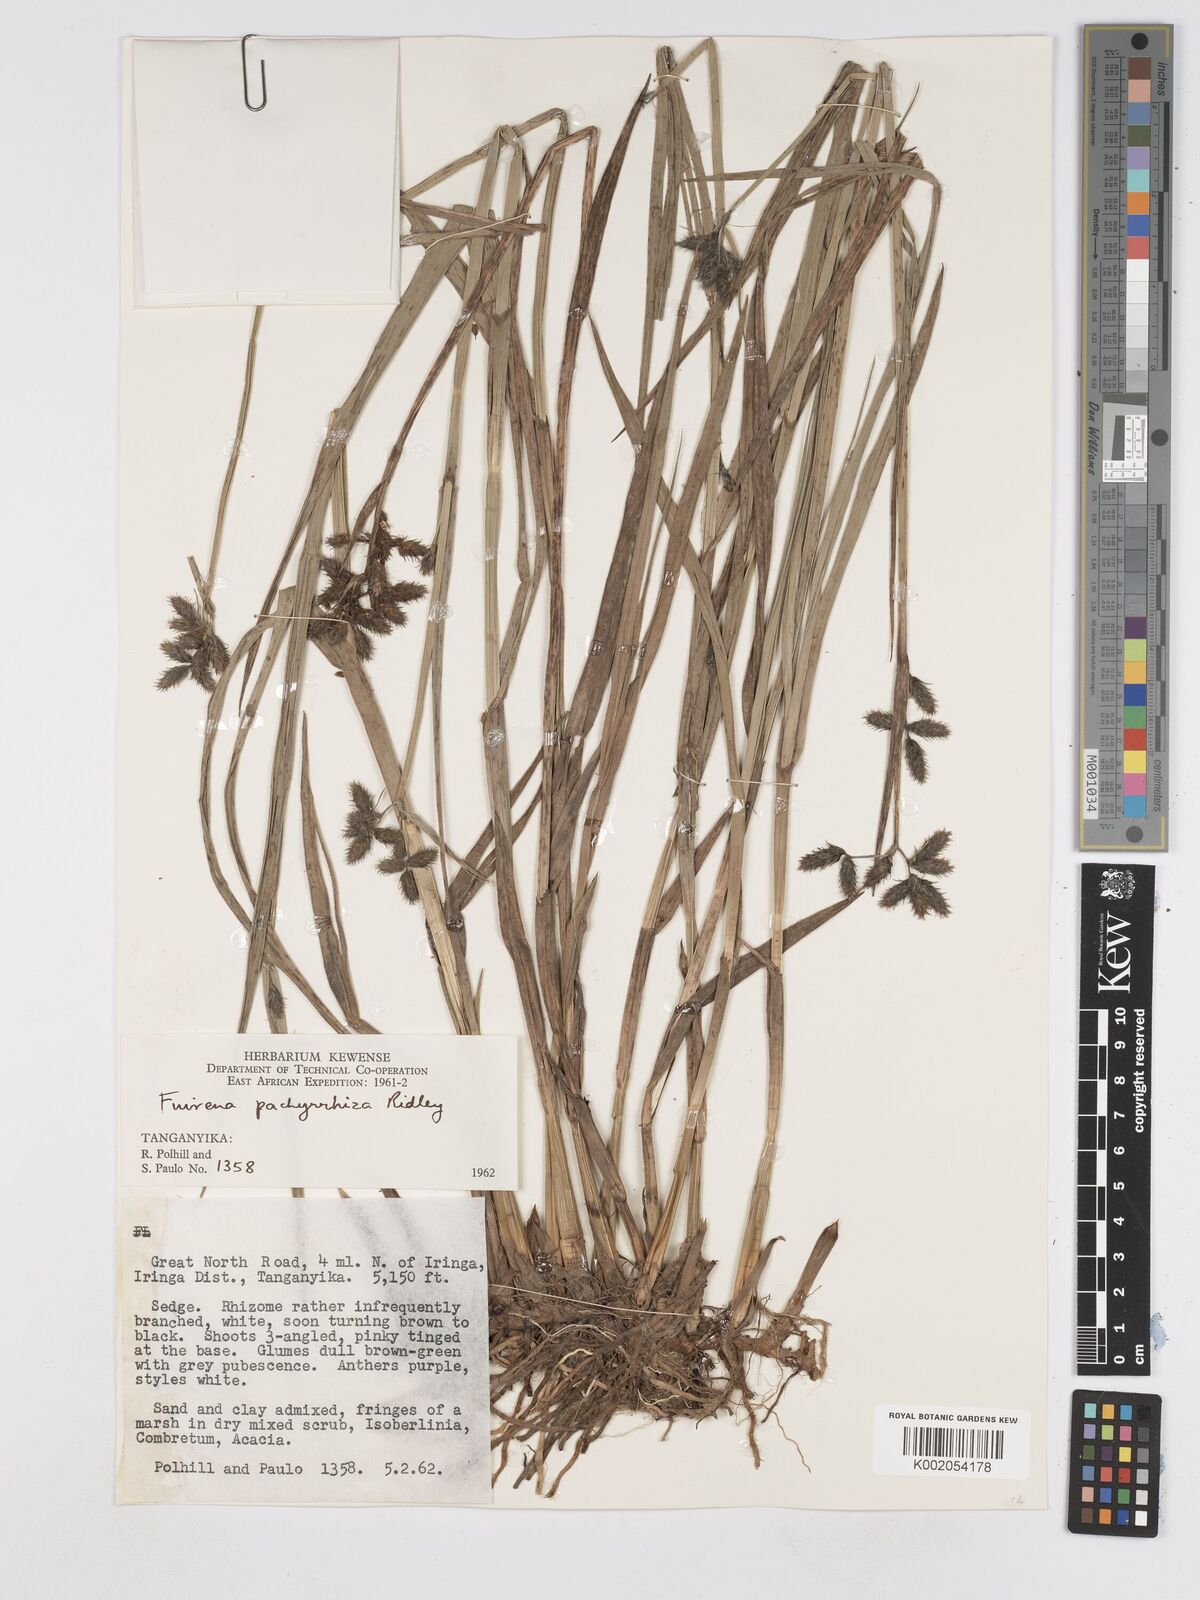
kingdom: Plantae
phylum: Tracheophyta
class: Liliopsida
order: Poales
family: Cyperaceae
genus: Fuirena
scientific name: Fuirena pachyrrhiza
